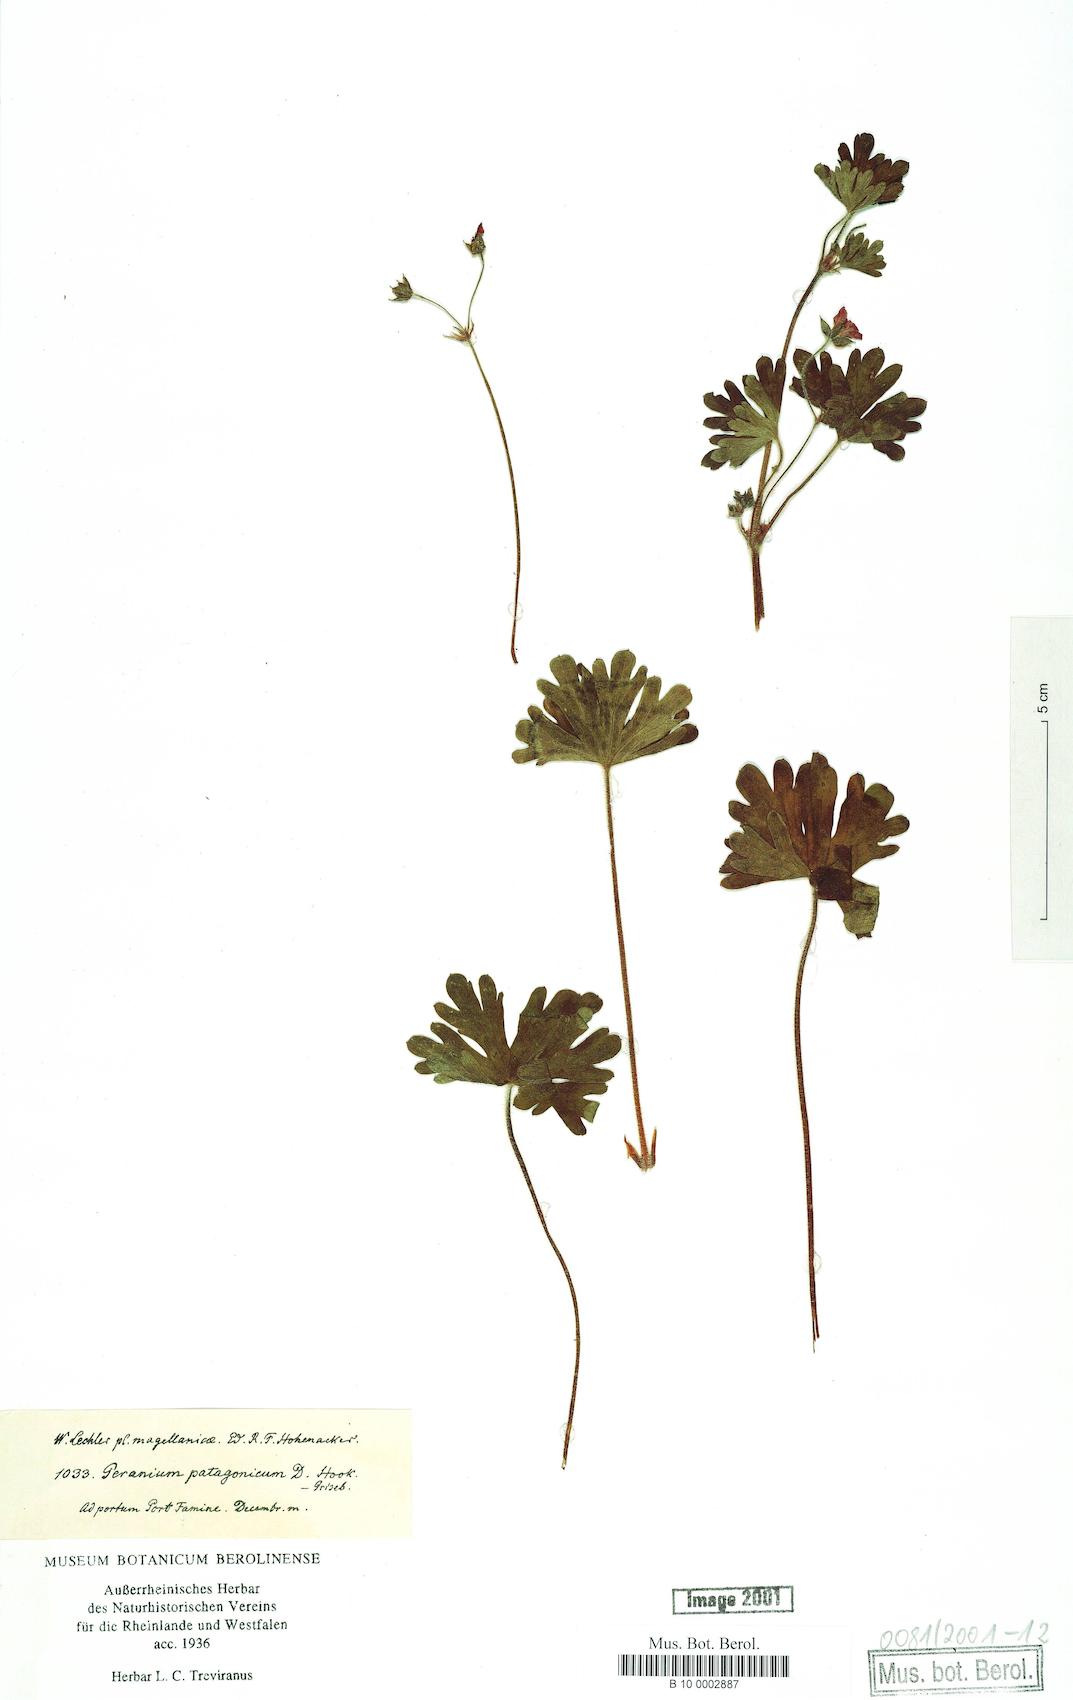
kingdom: Plantae
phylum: Tracheophyta
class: Magnoliopsida
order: Geraniales
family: Geraniaceae
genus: Geranium
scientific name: Geranium berteroanum
